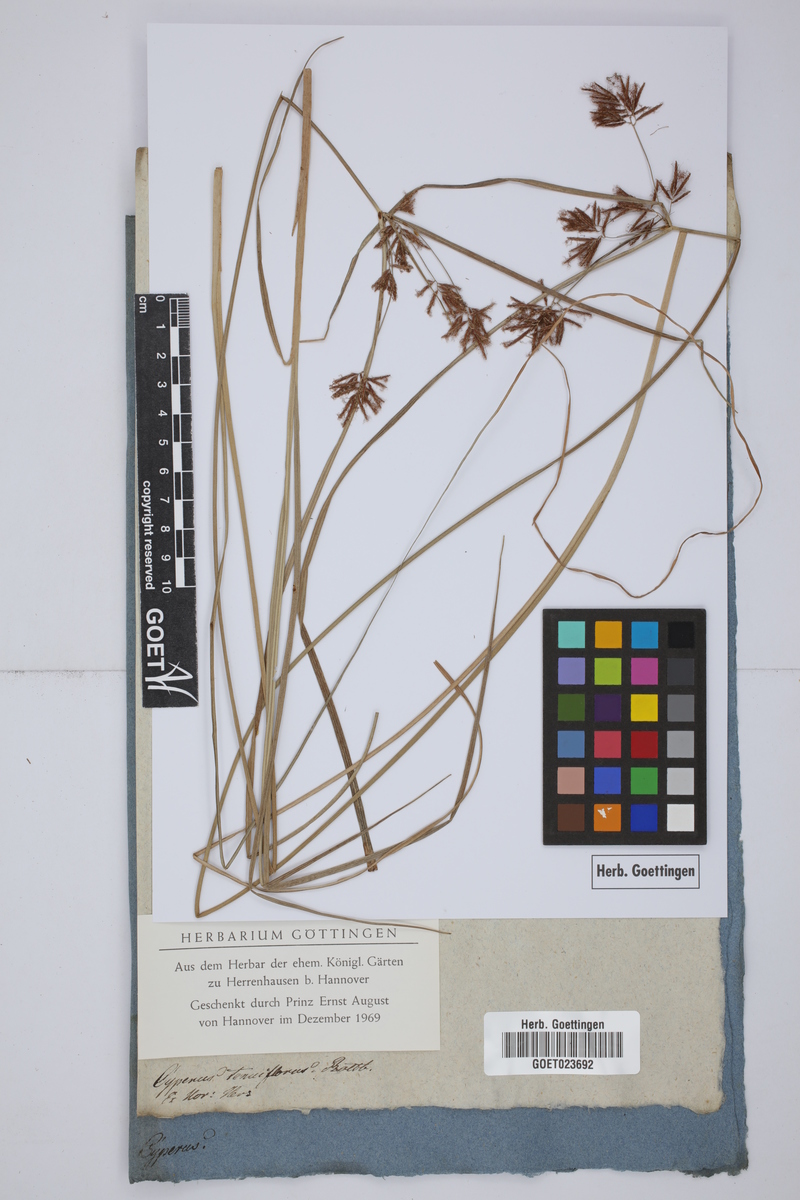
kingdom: Plantae
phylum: Tracheophyta
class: Liliopsida
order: Poales
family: Cyperaceae
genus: Cyperus
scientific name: Cyperus longus
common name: Galingale
